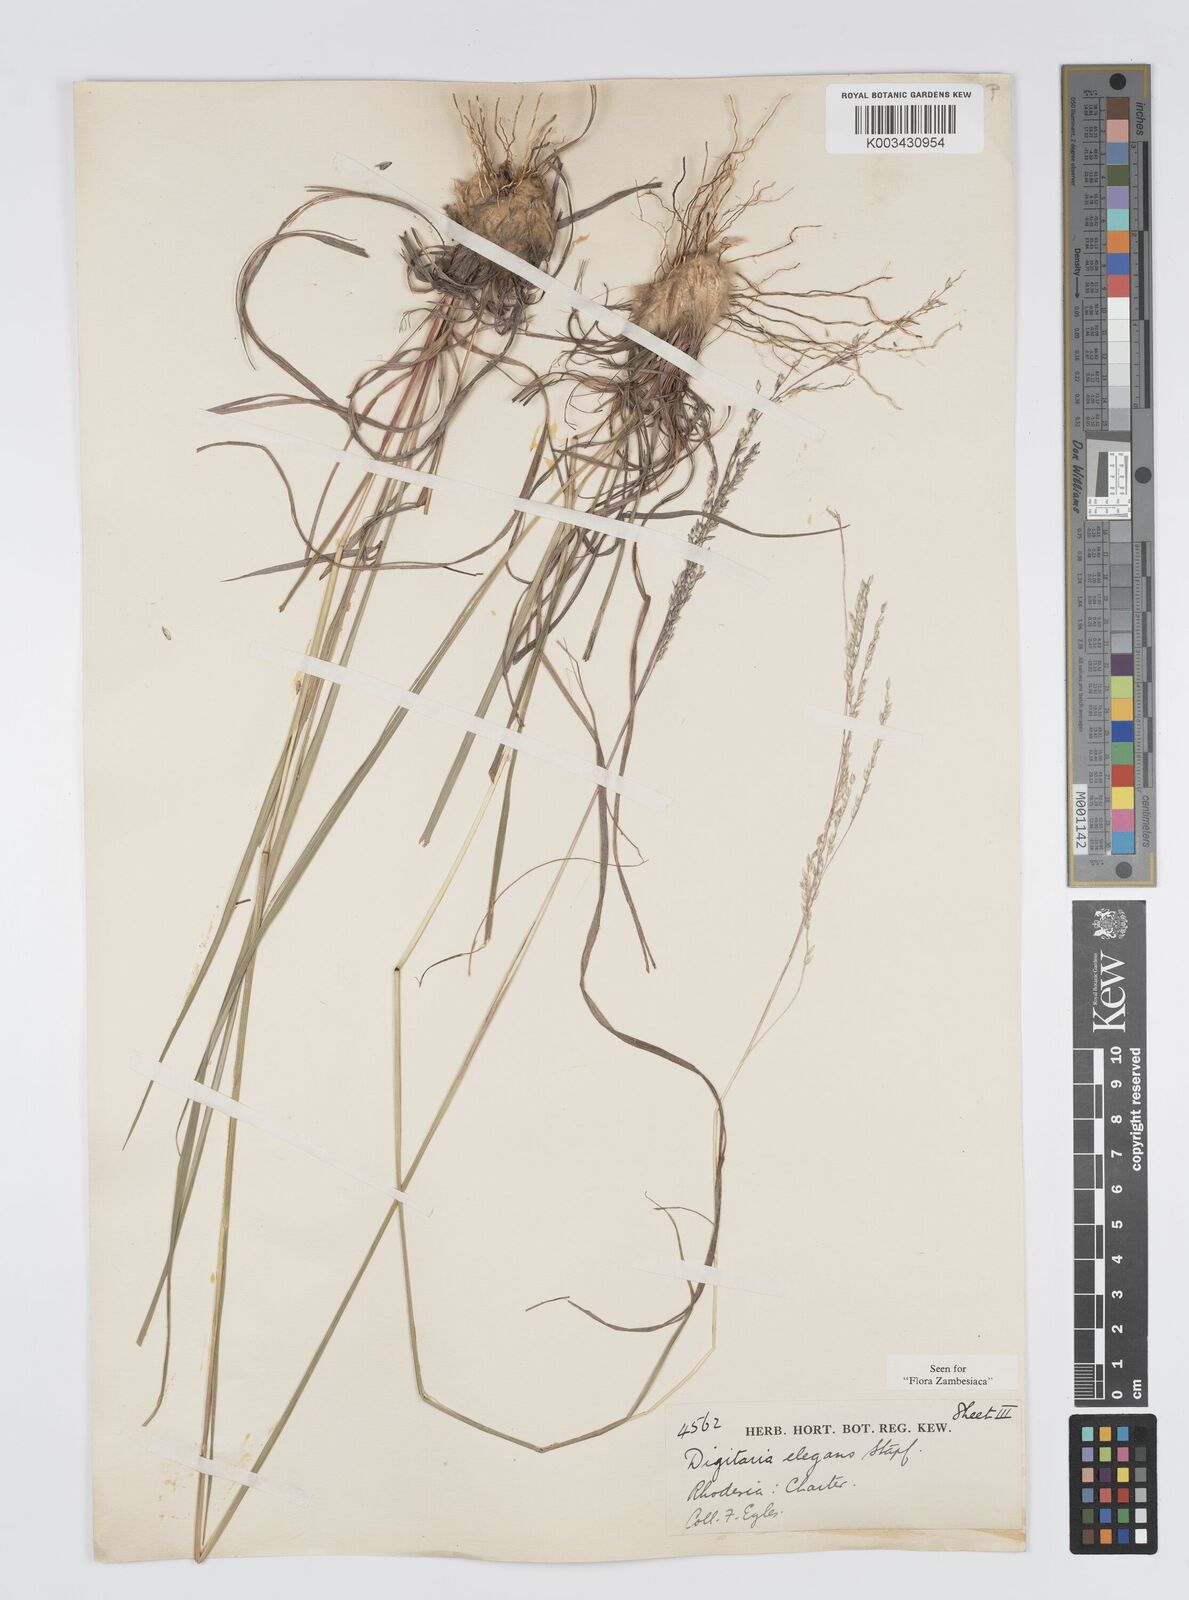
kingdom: Plantae
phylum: Tracheophyta
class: Liliopsida
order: Poales
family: Poaceae
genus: Digitaria
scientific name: Digitaria flaccida
